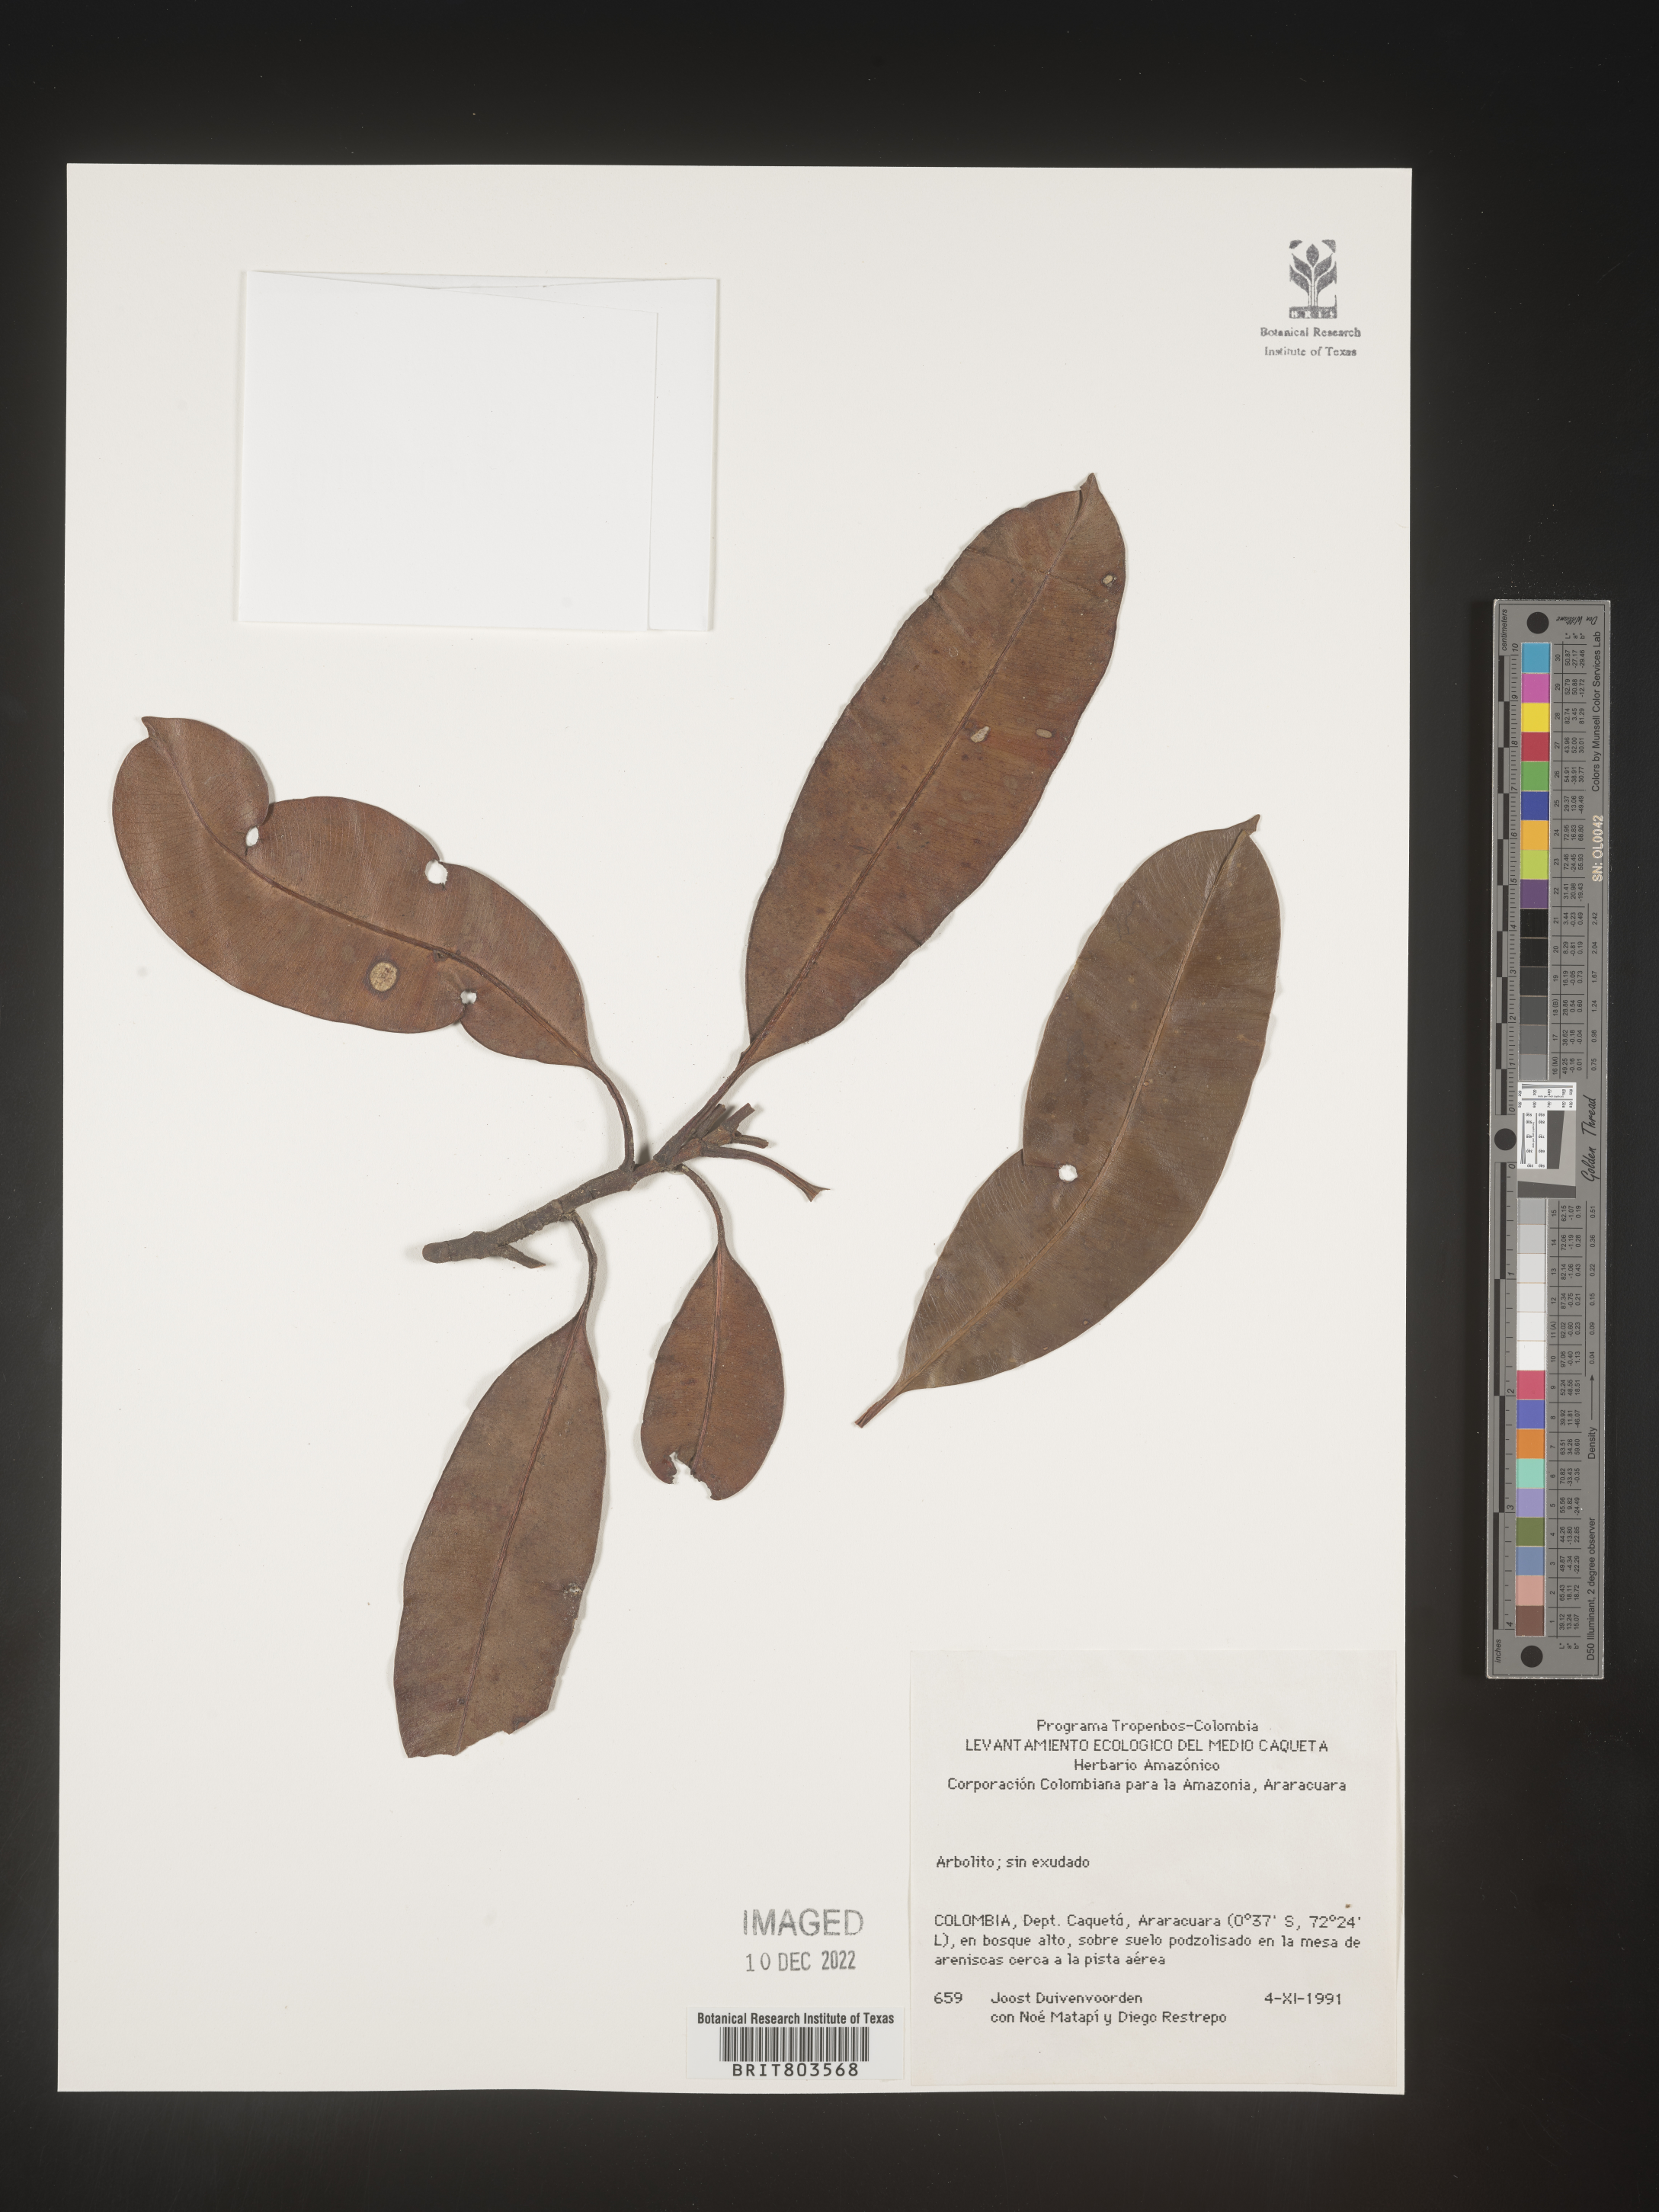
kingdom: Plantae
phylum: Tracheophyta
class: Magnoliopsida
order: Malpighiales
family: Clusiaceae
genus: Tovomita
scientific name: Tovomita
